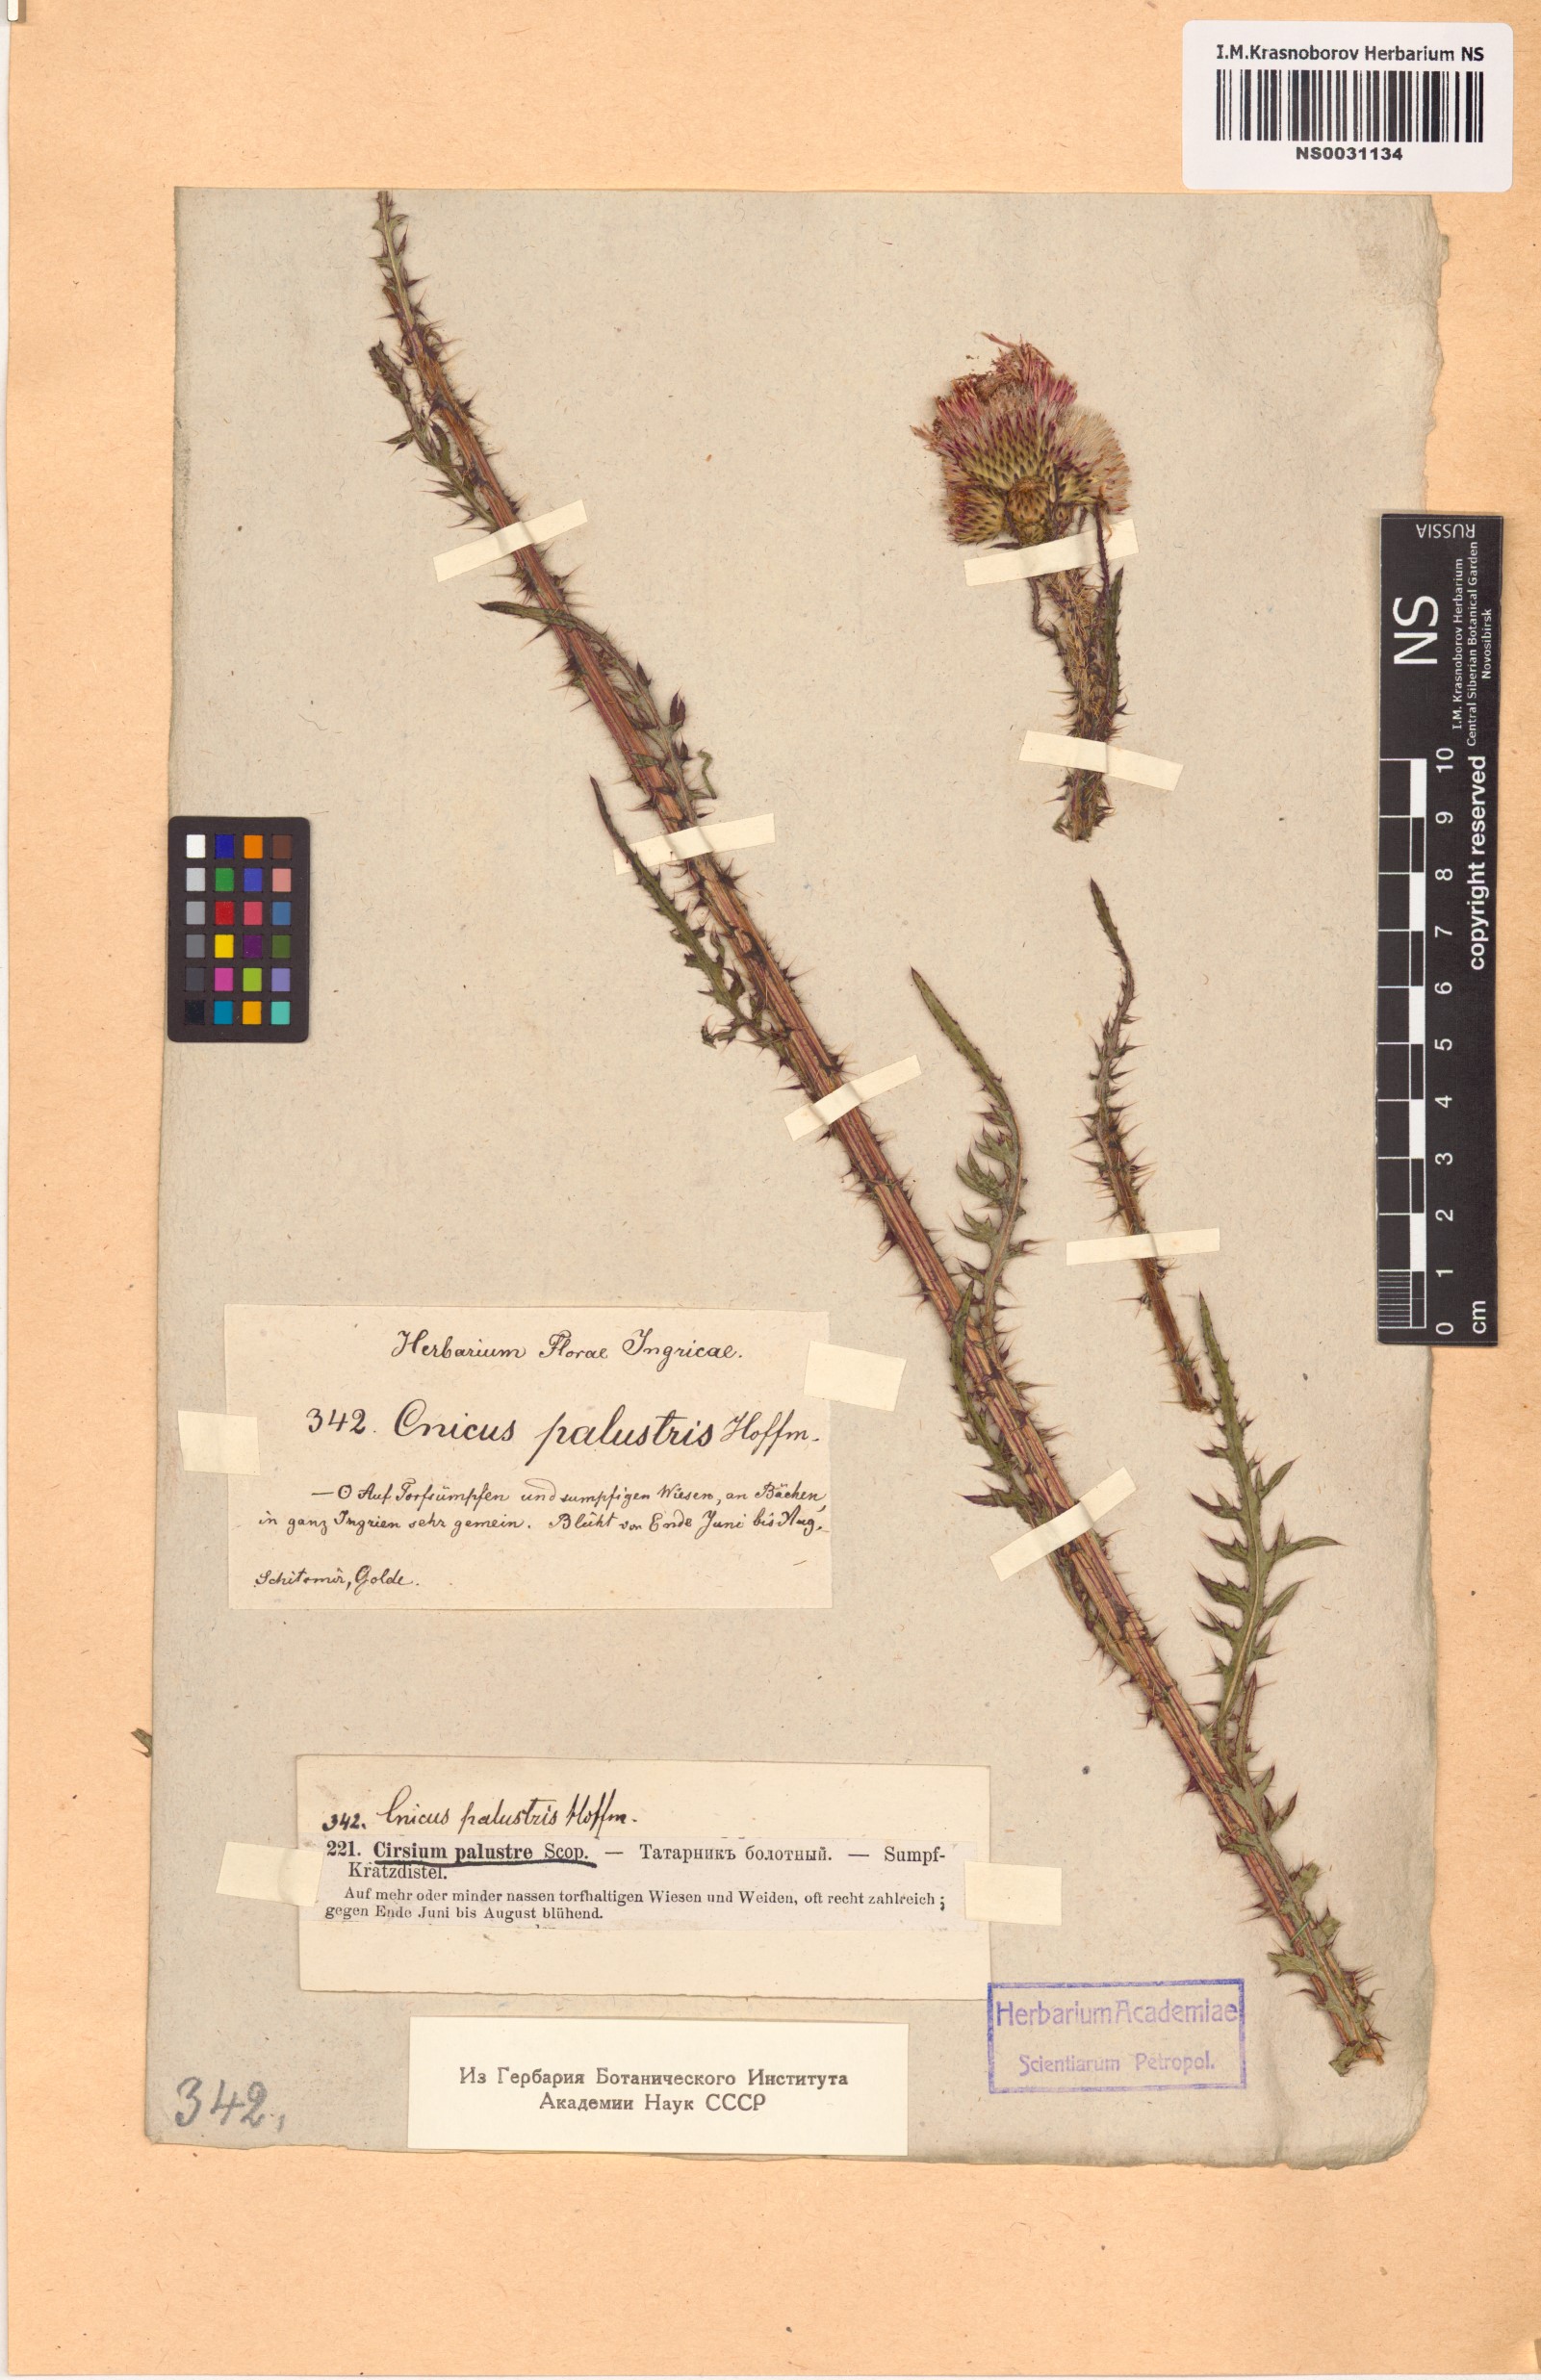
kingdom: Plantae
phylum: Tracheophyta
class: Magnoliopsida
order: Asterales
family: Asteraceae
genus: Cirsium
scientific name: Cirsium palustre
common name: Marsh thistle
